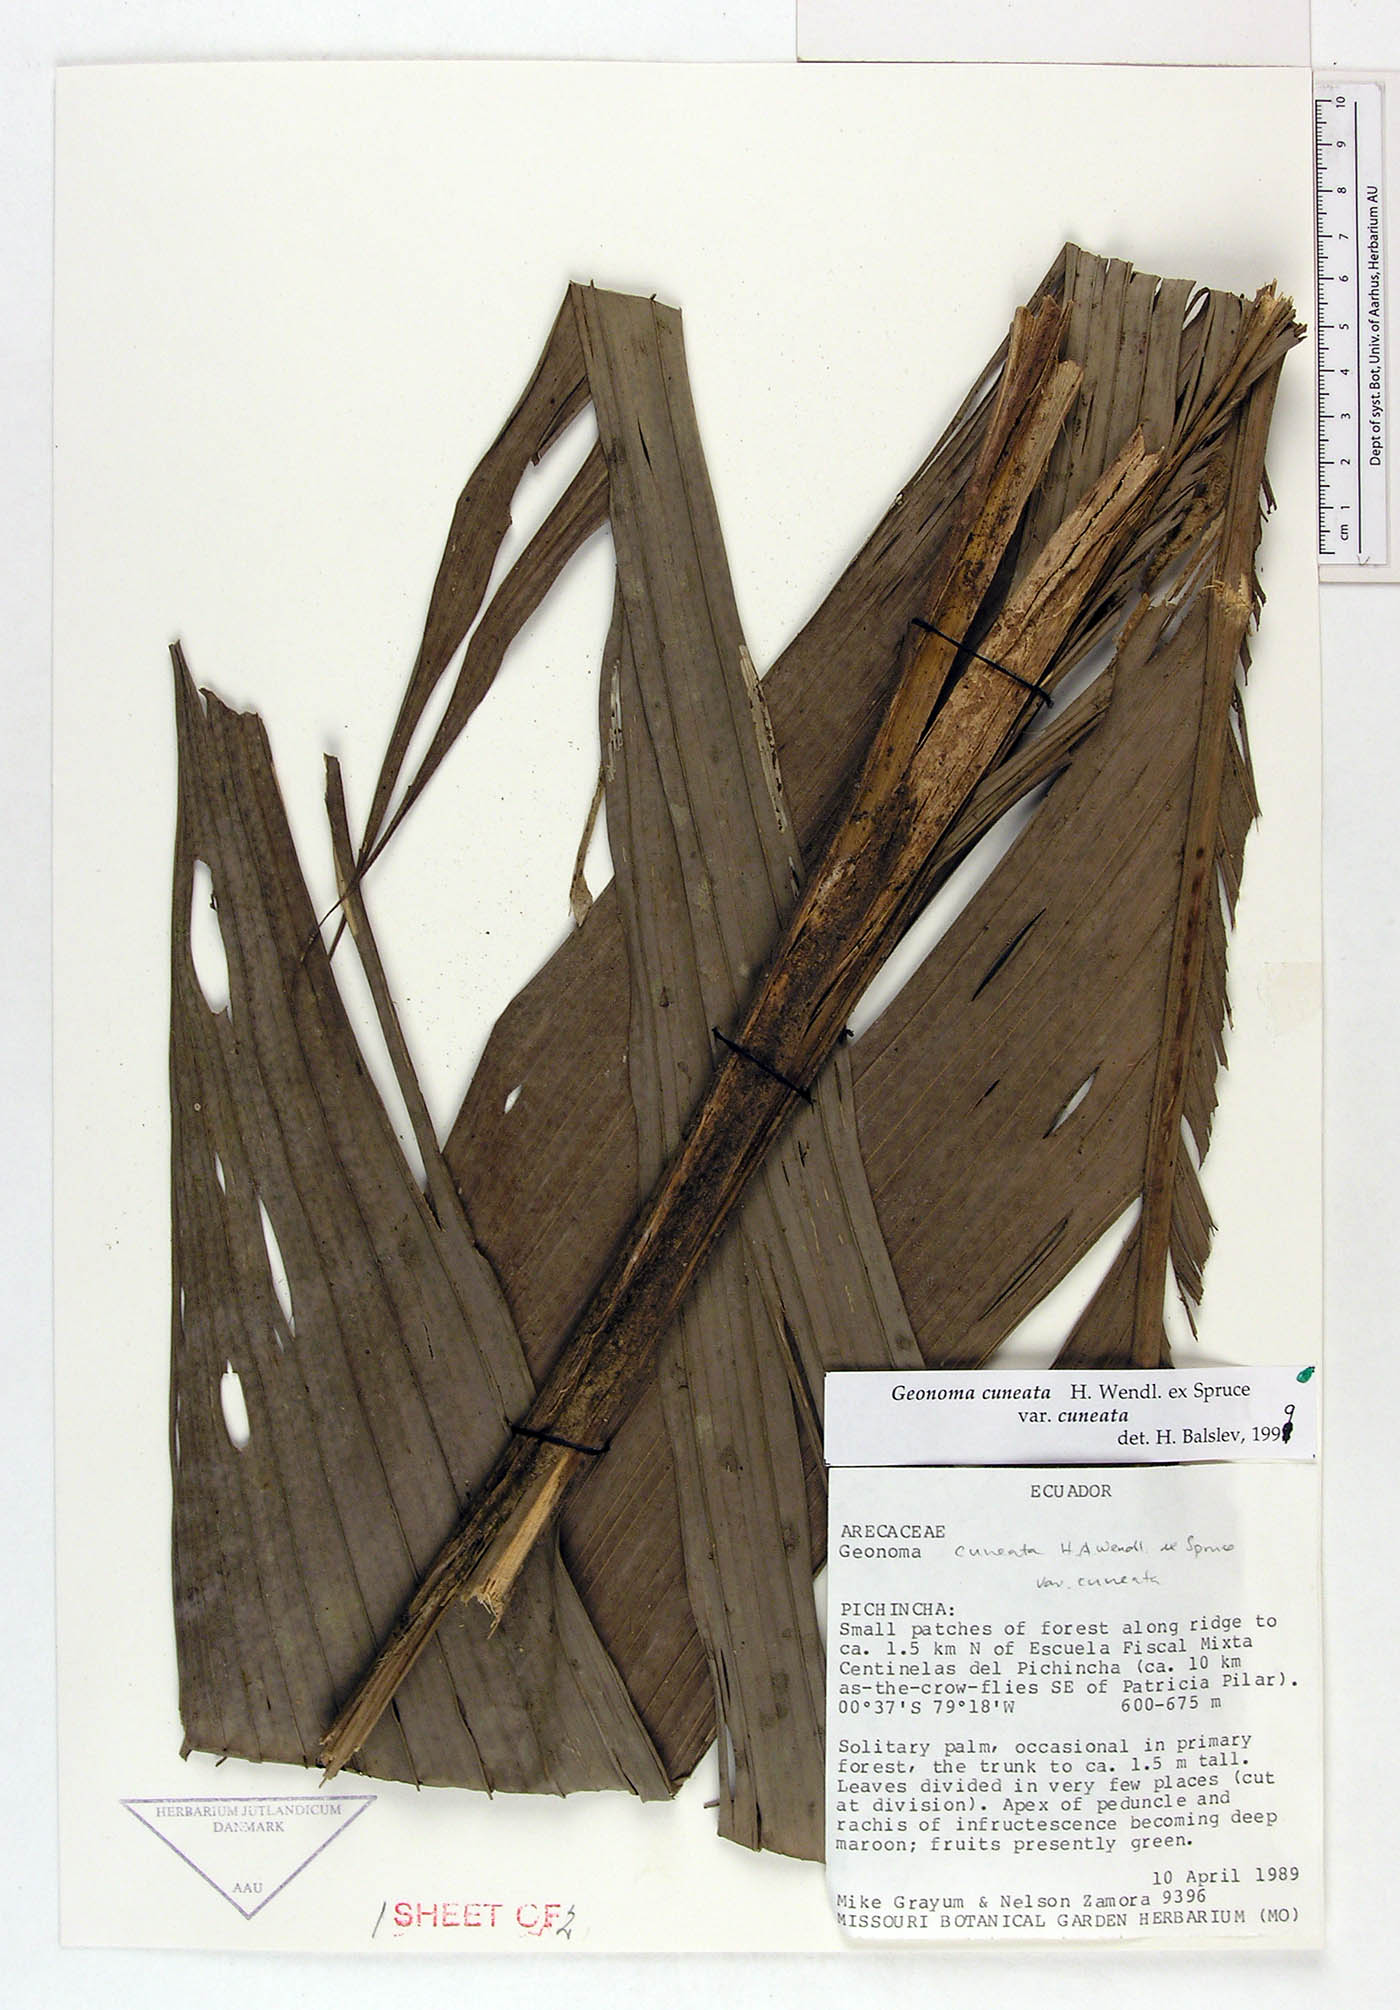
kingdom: Plantae
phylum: Tracheophyta
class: Liliopsida
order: Arecales
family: Arecaceae
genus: Geonoma
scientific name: Geonoma cuneata
